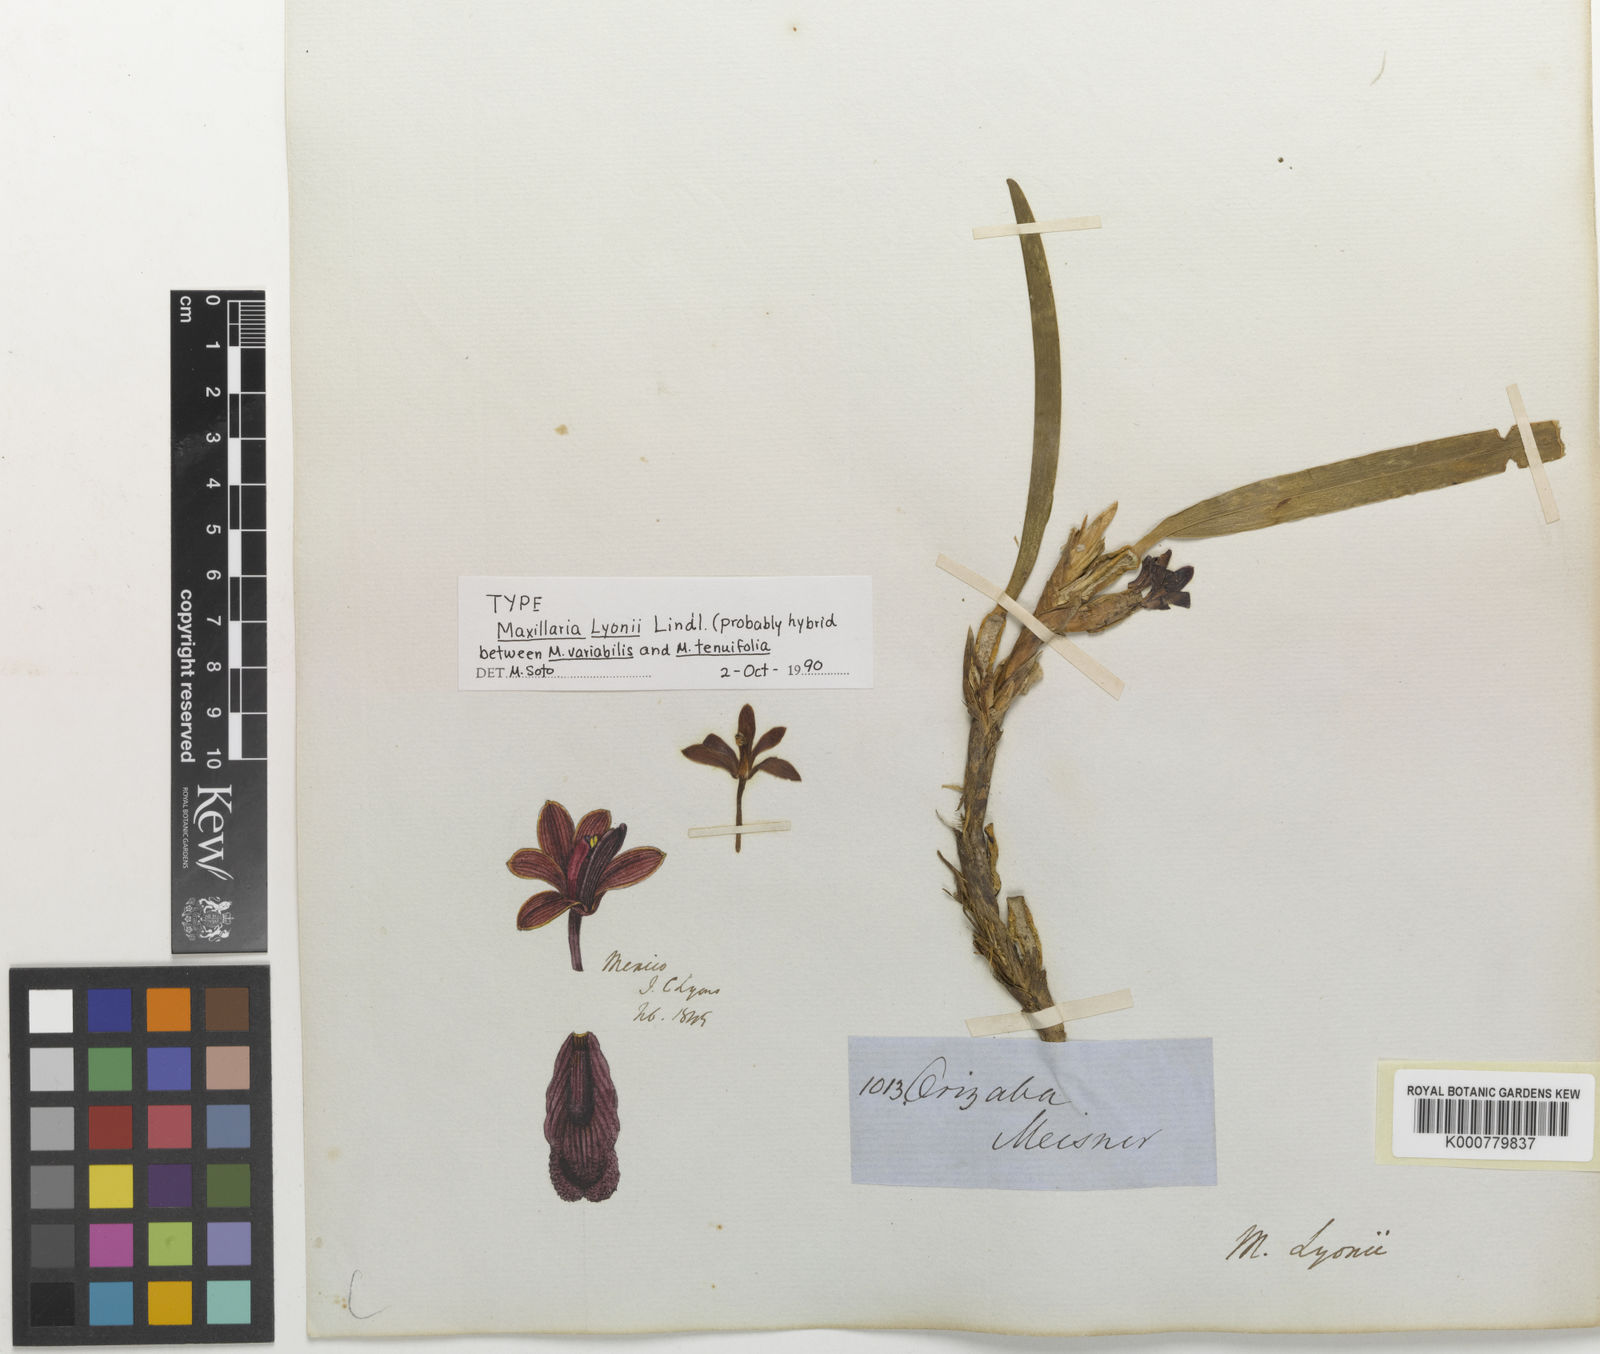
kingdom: Plantae
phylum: Tracheophyta
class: Liliopsida
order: Asparagales
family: Orchidaceae
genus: Maxillaria
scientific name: Maxillaria variabilis
